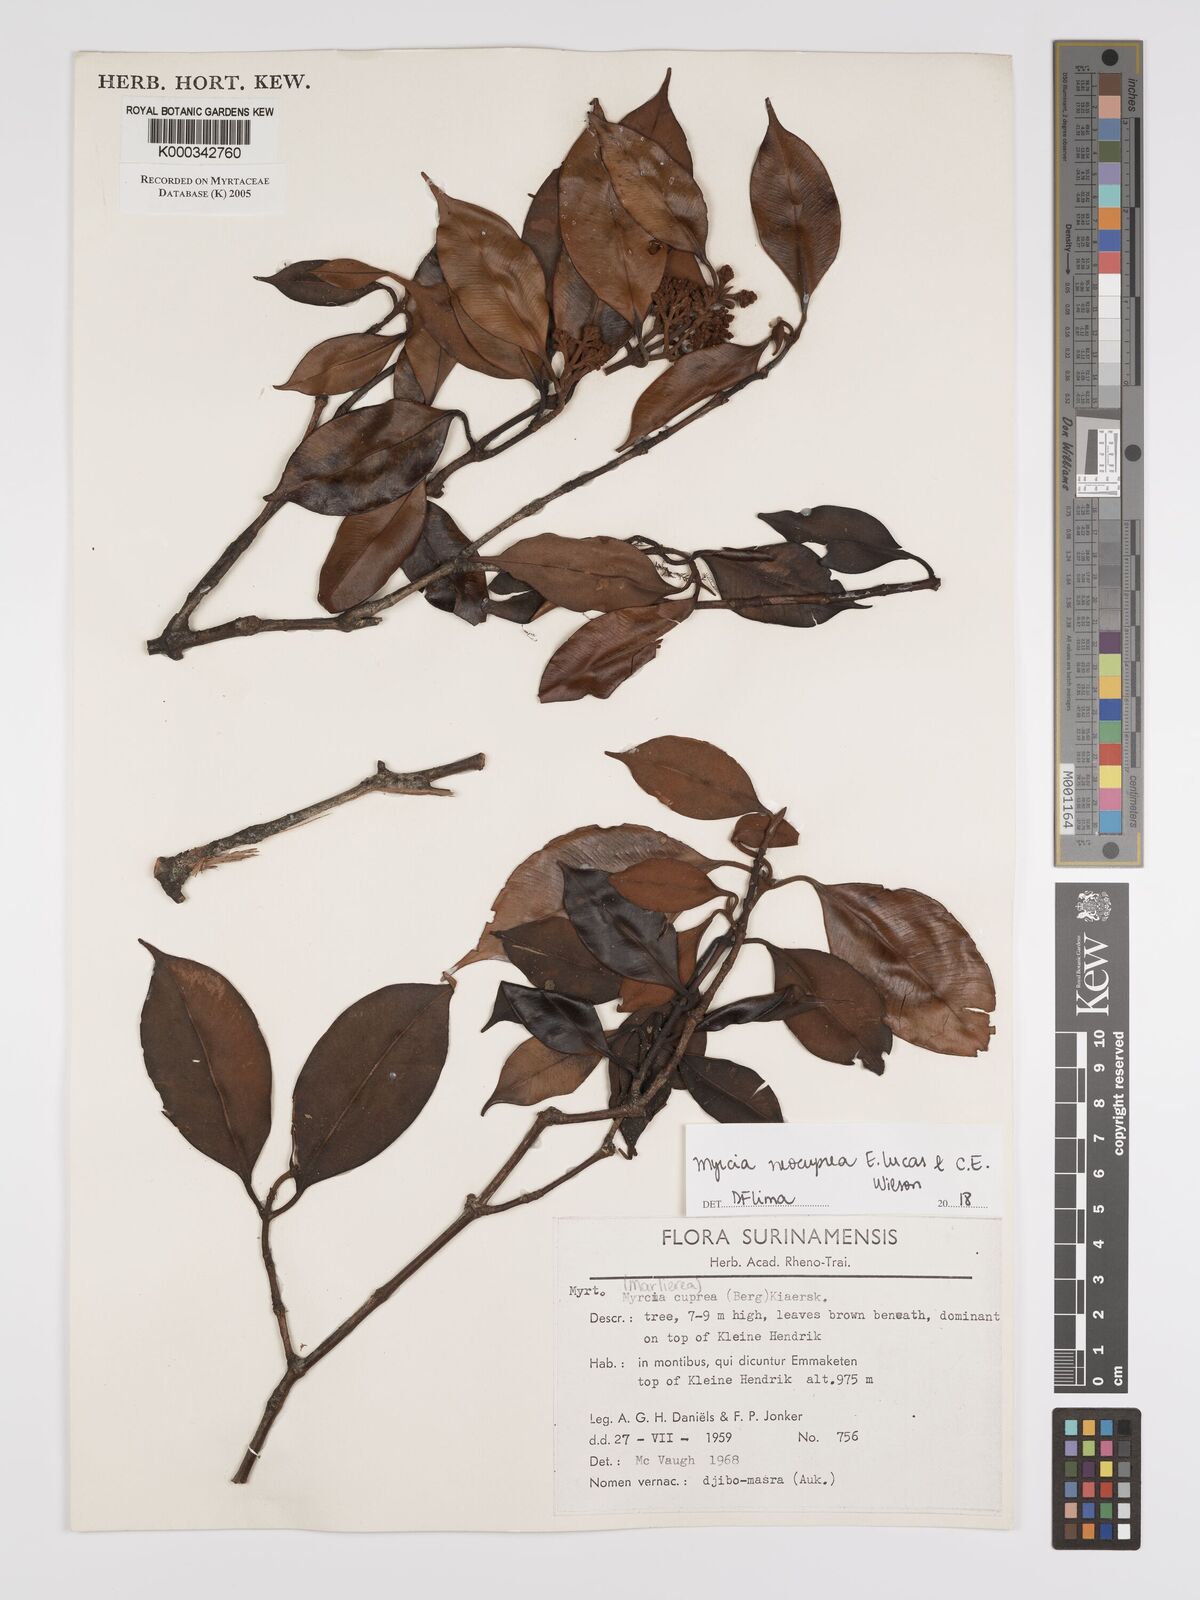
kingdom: Plantae
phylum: Tracheophyta
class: Magnoliopsida
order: Myrtales
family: Myrtaceae
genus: Myrcia
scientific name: Myrcia cuprea
